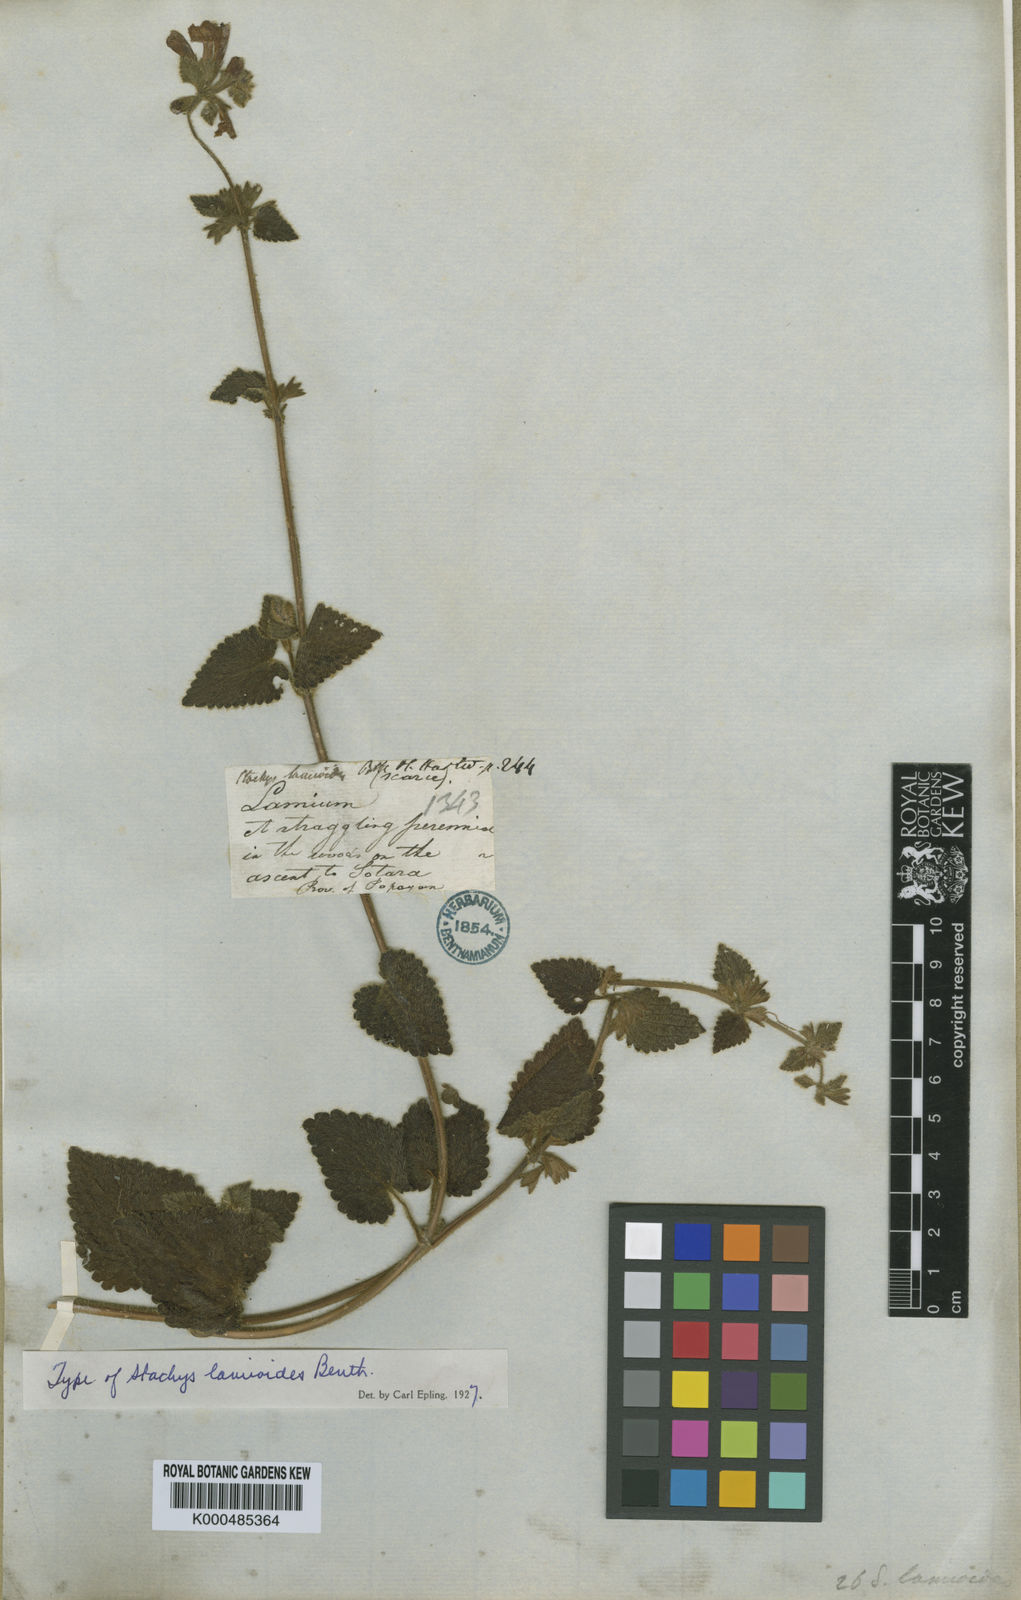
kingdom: Plantae
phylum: Tracheophyta
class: Magnoliopsida
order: Lamiales
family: Lamiaceae
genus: Stachys
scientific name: Stachys lamioides
